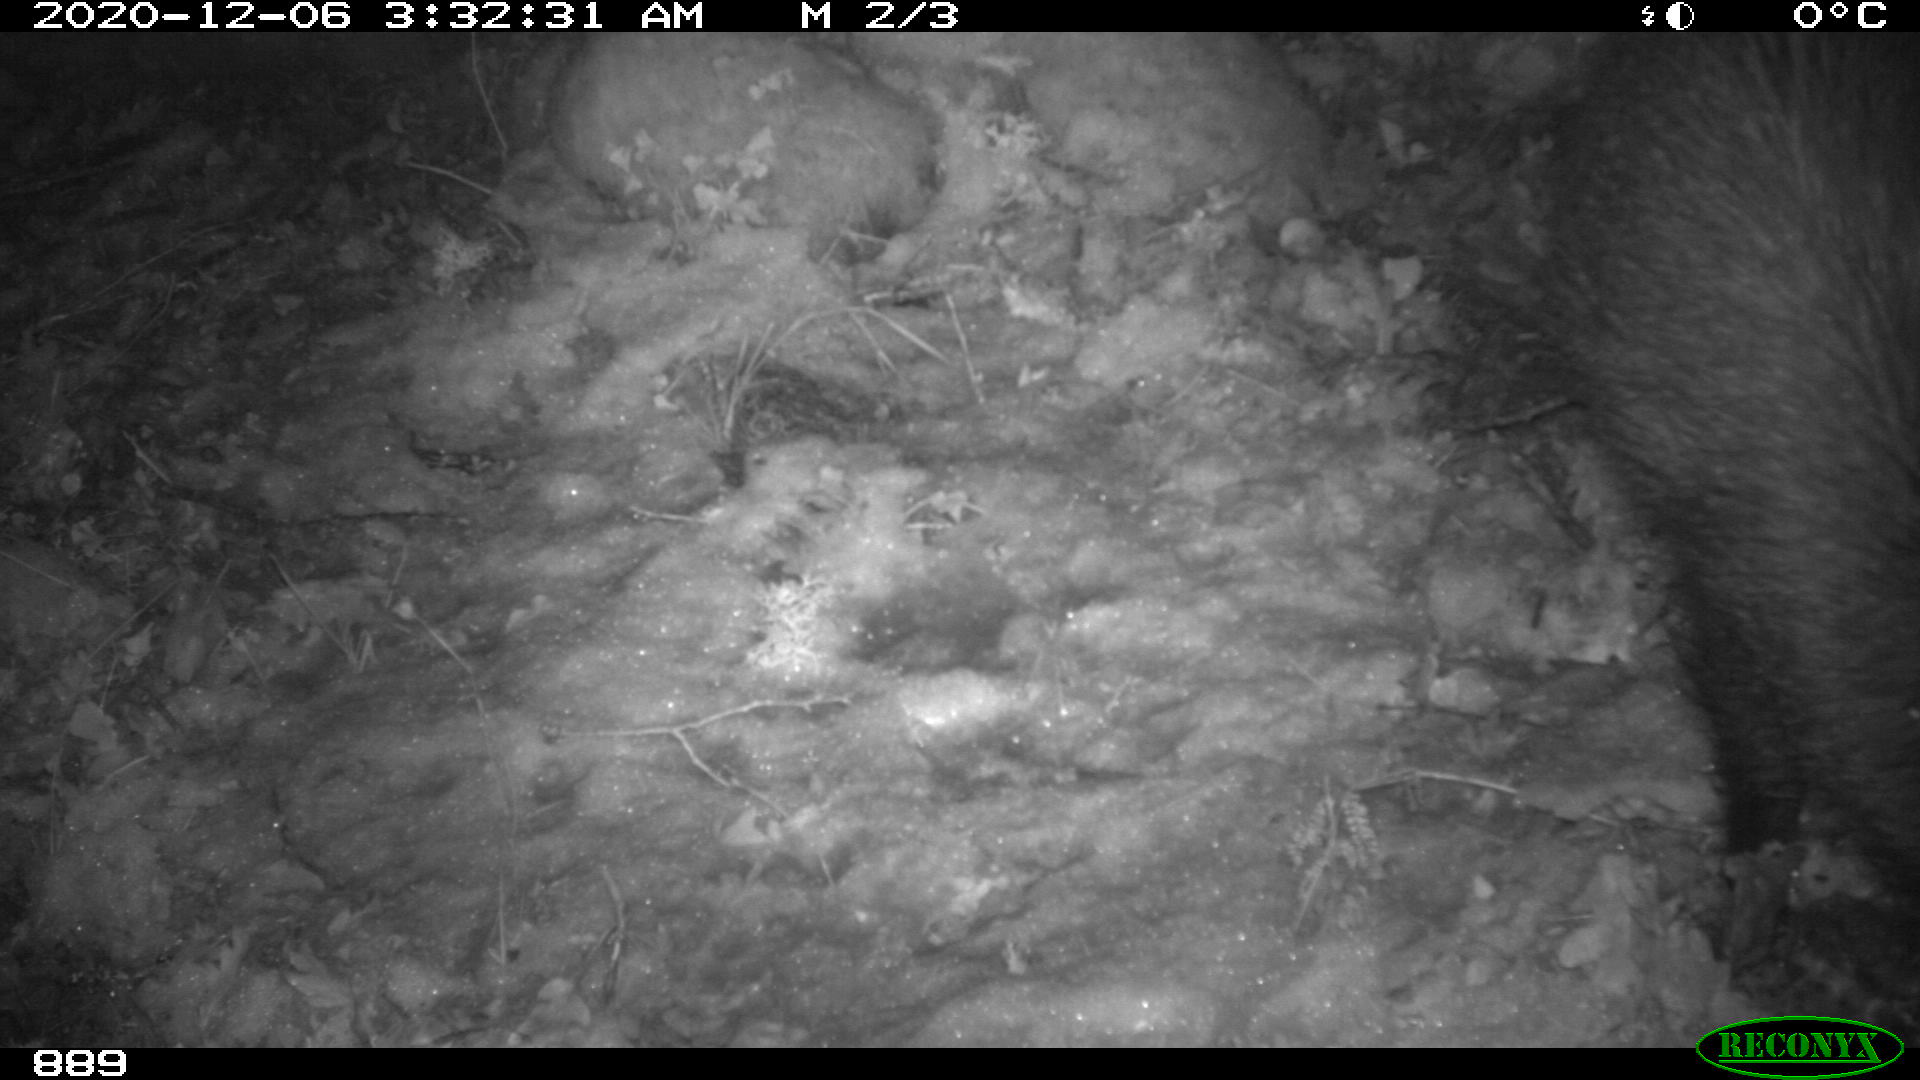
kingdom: Animalia
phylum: Chordata
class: Mammalia
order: Artiodactyla
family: Suidae
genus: Sus
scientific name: Sus scrofa
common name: Wild boar
